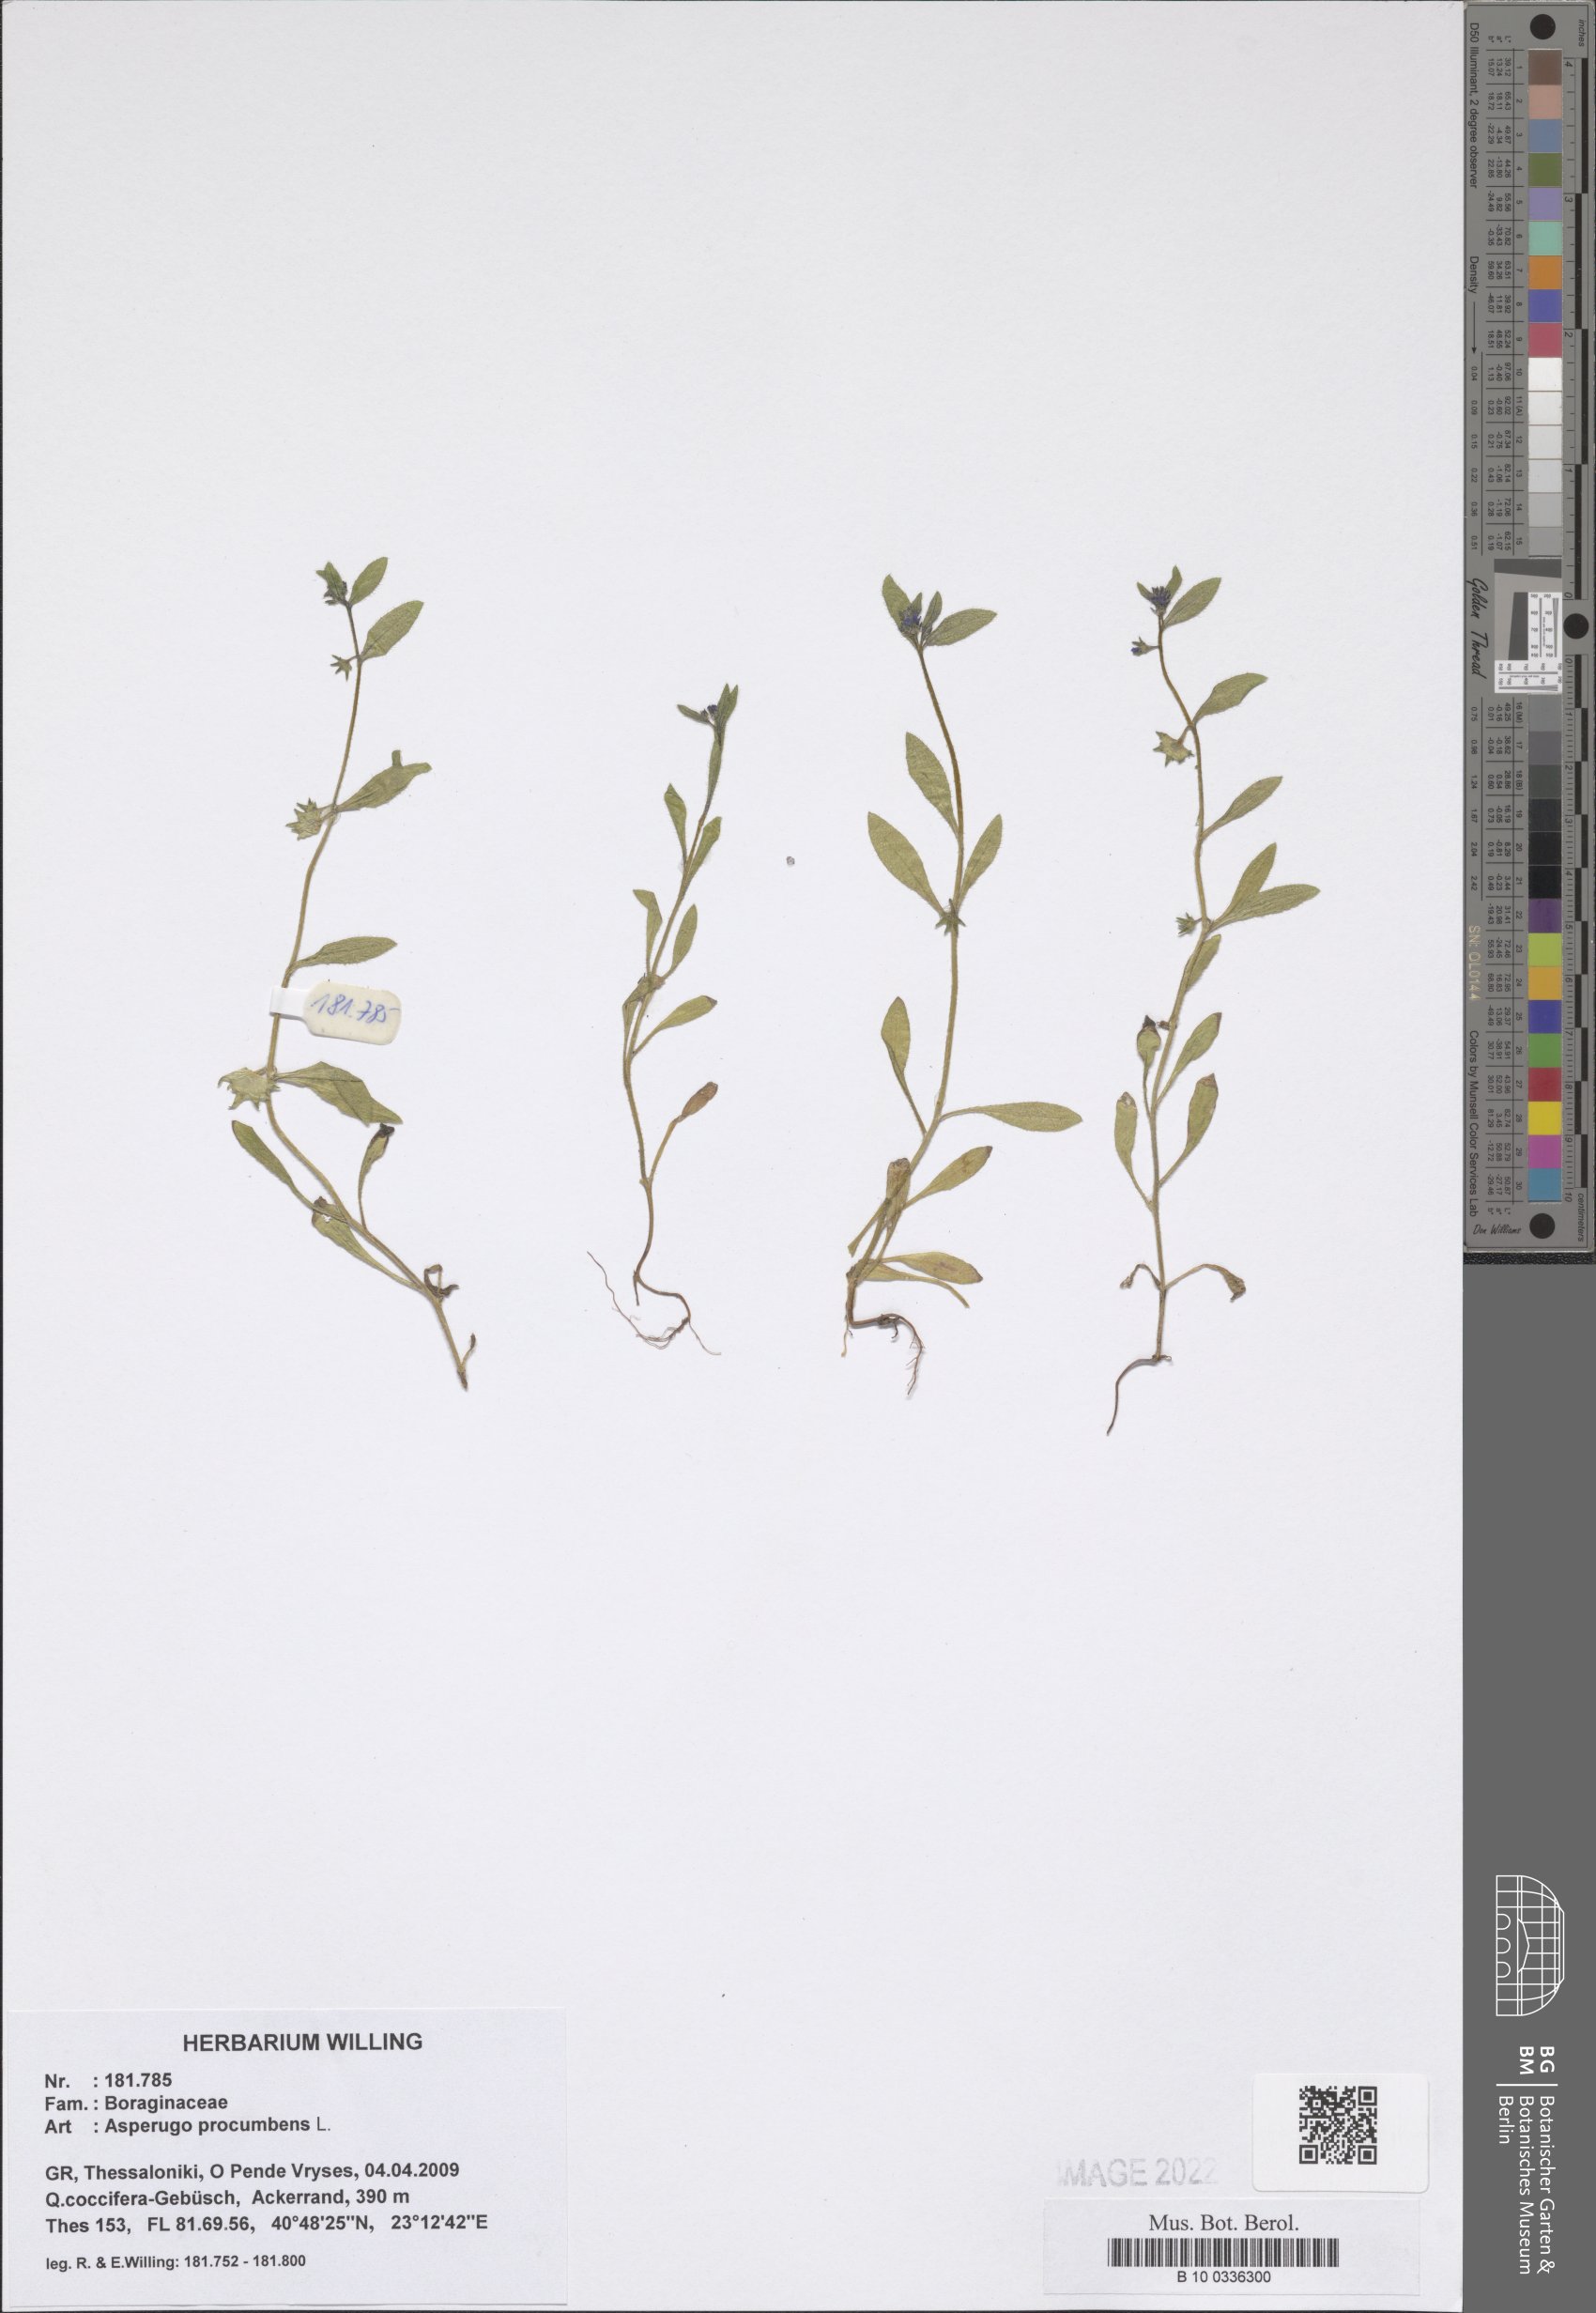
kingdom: Plantae
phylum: Tracheophyta
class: Magnoliopsida
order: Boraginales
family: Boraginaceae
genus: Asperugo
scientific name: Asperugo procumbens
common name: Madwort
